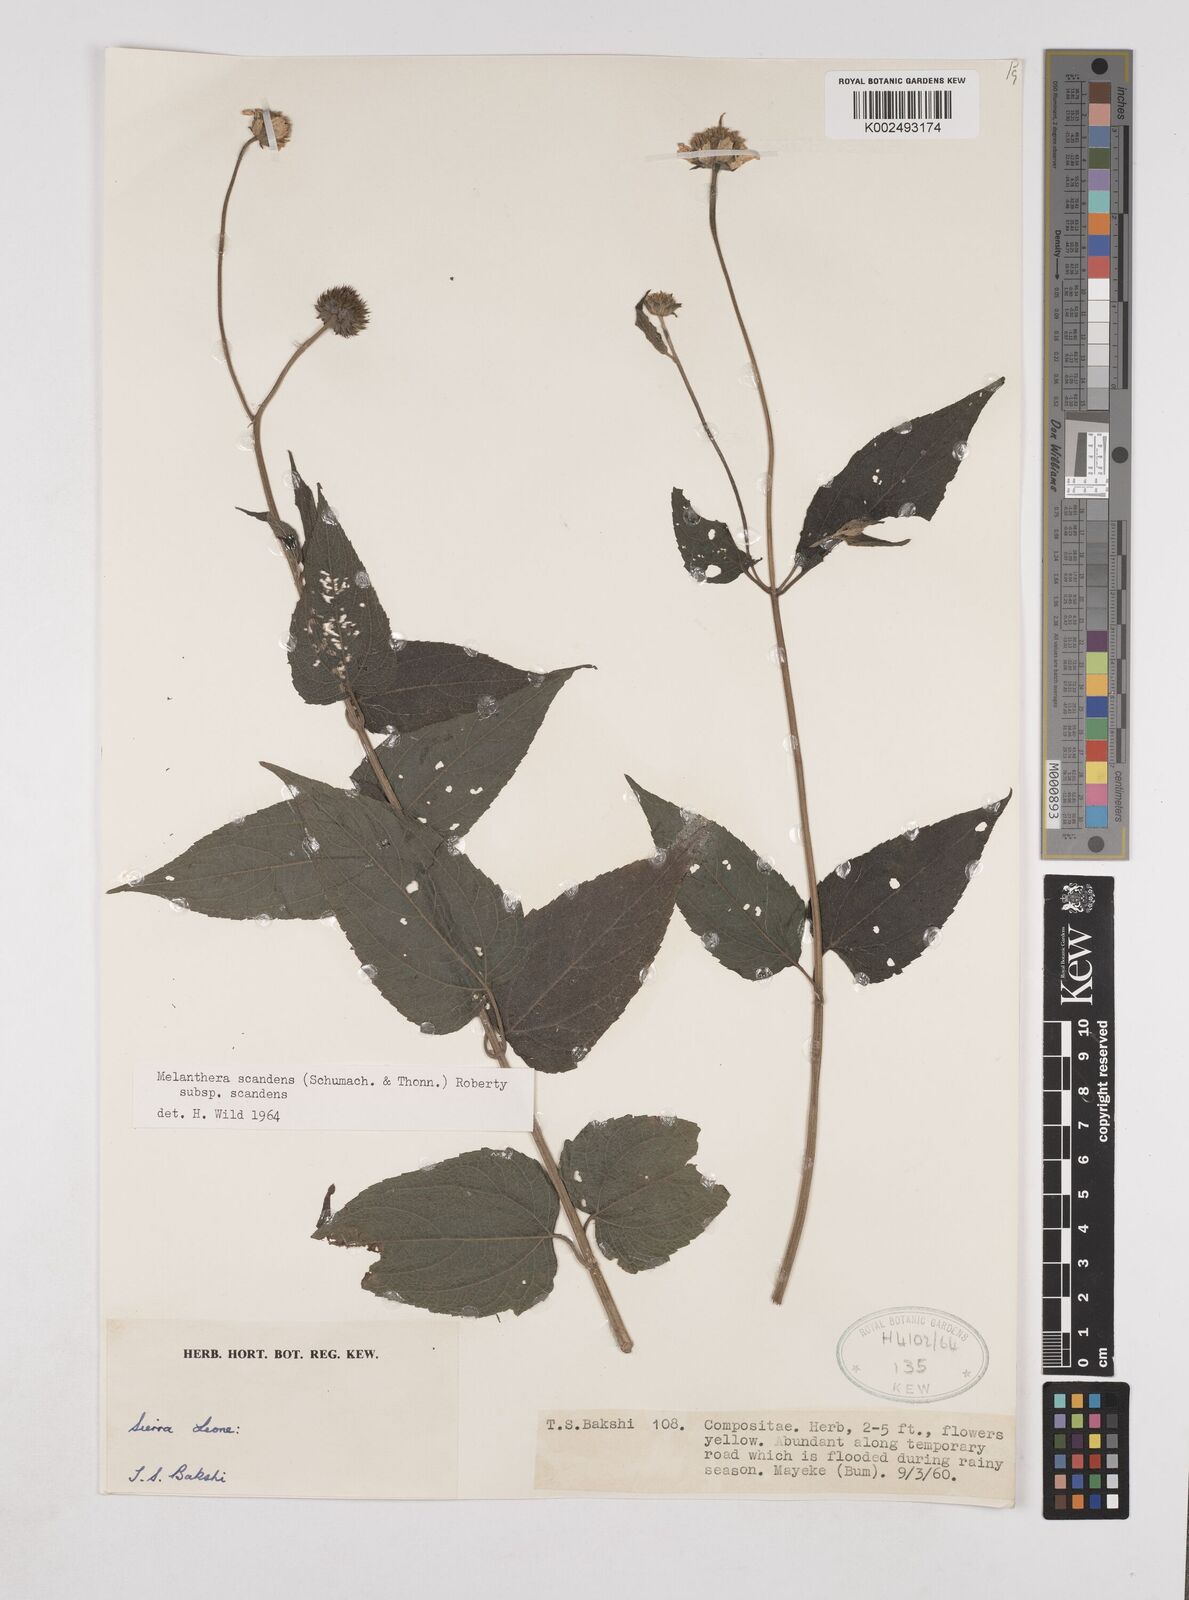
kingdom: Plantae
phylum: Tracheophyta
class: Magnoliopsida
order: Asterales
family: Asteraceae
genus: Lipotriche
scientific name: Lipotriche scandens
